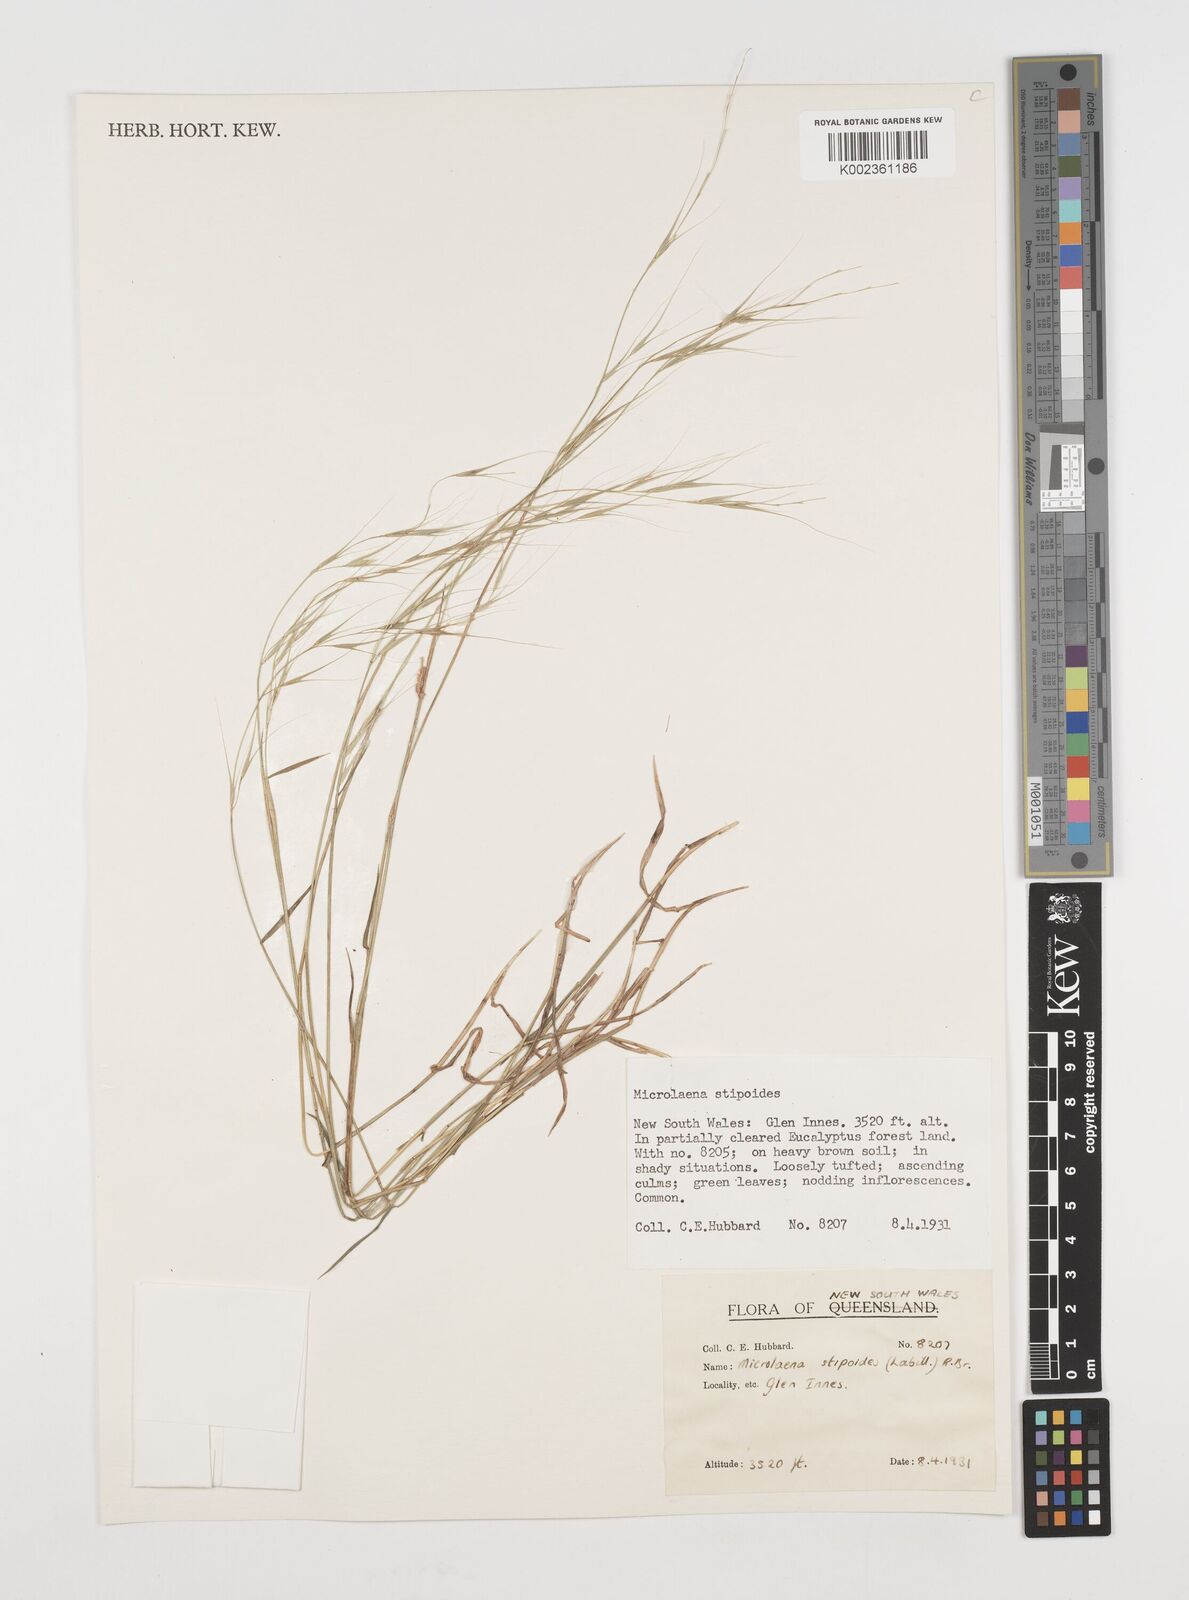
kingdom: Plantae
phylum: Tracheophyta
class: Liliopsida
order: Poales
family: Poaceae
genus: Microlaena
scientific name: Microlaena stipoides
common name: Meadow ricegrass
